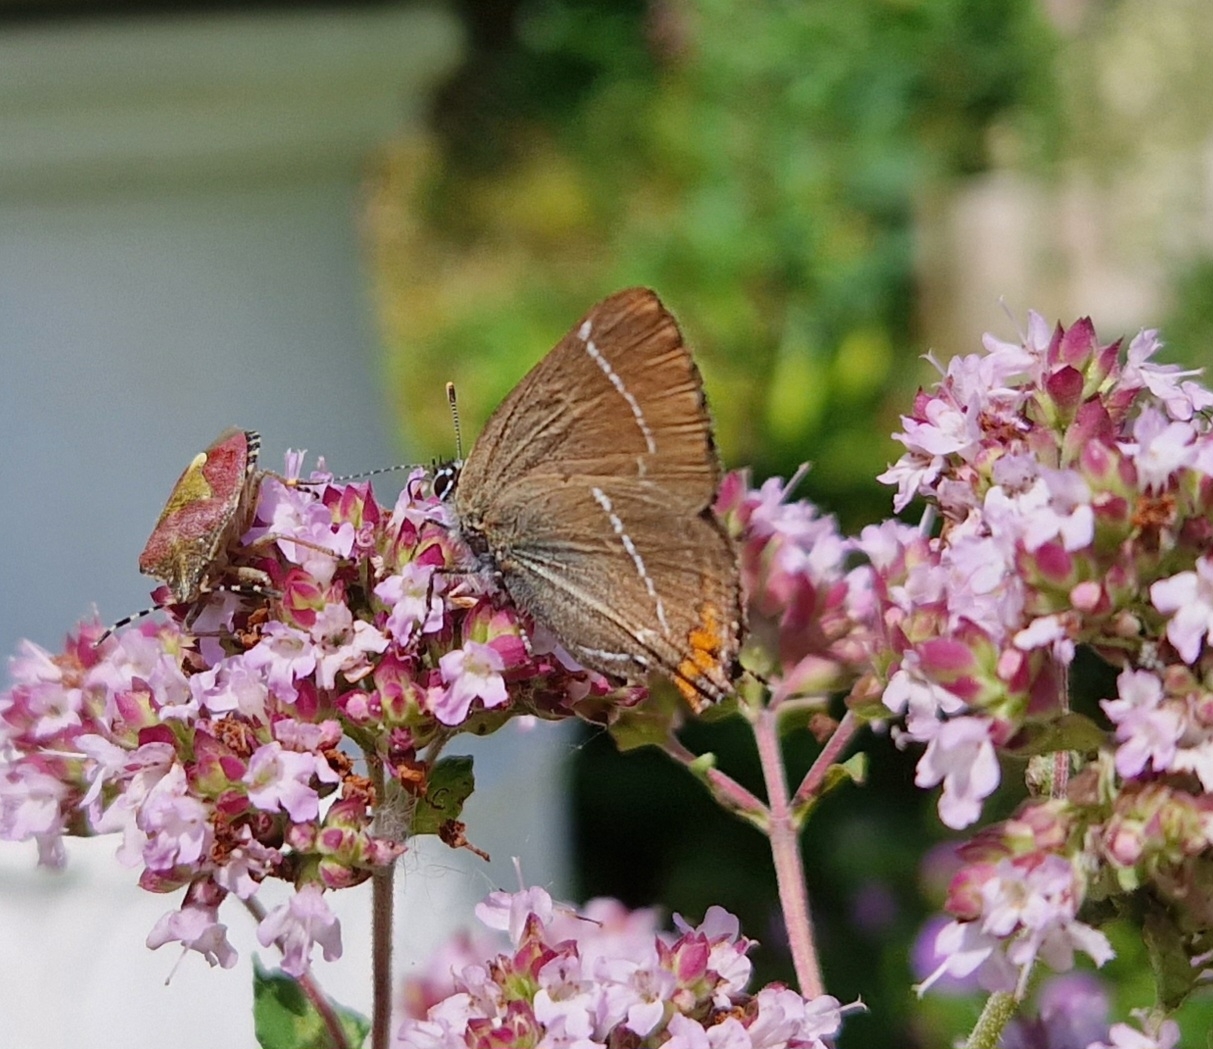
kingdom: Animalia
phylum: Arthropoda
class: Insecta
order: Lepidoptera
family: Lycaenidae
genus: Satyrium
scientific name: Satyrium w-album
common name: Det hvide W
